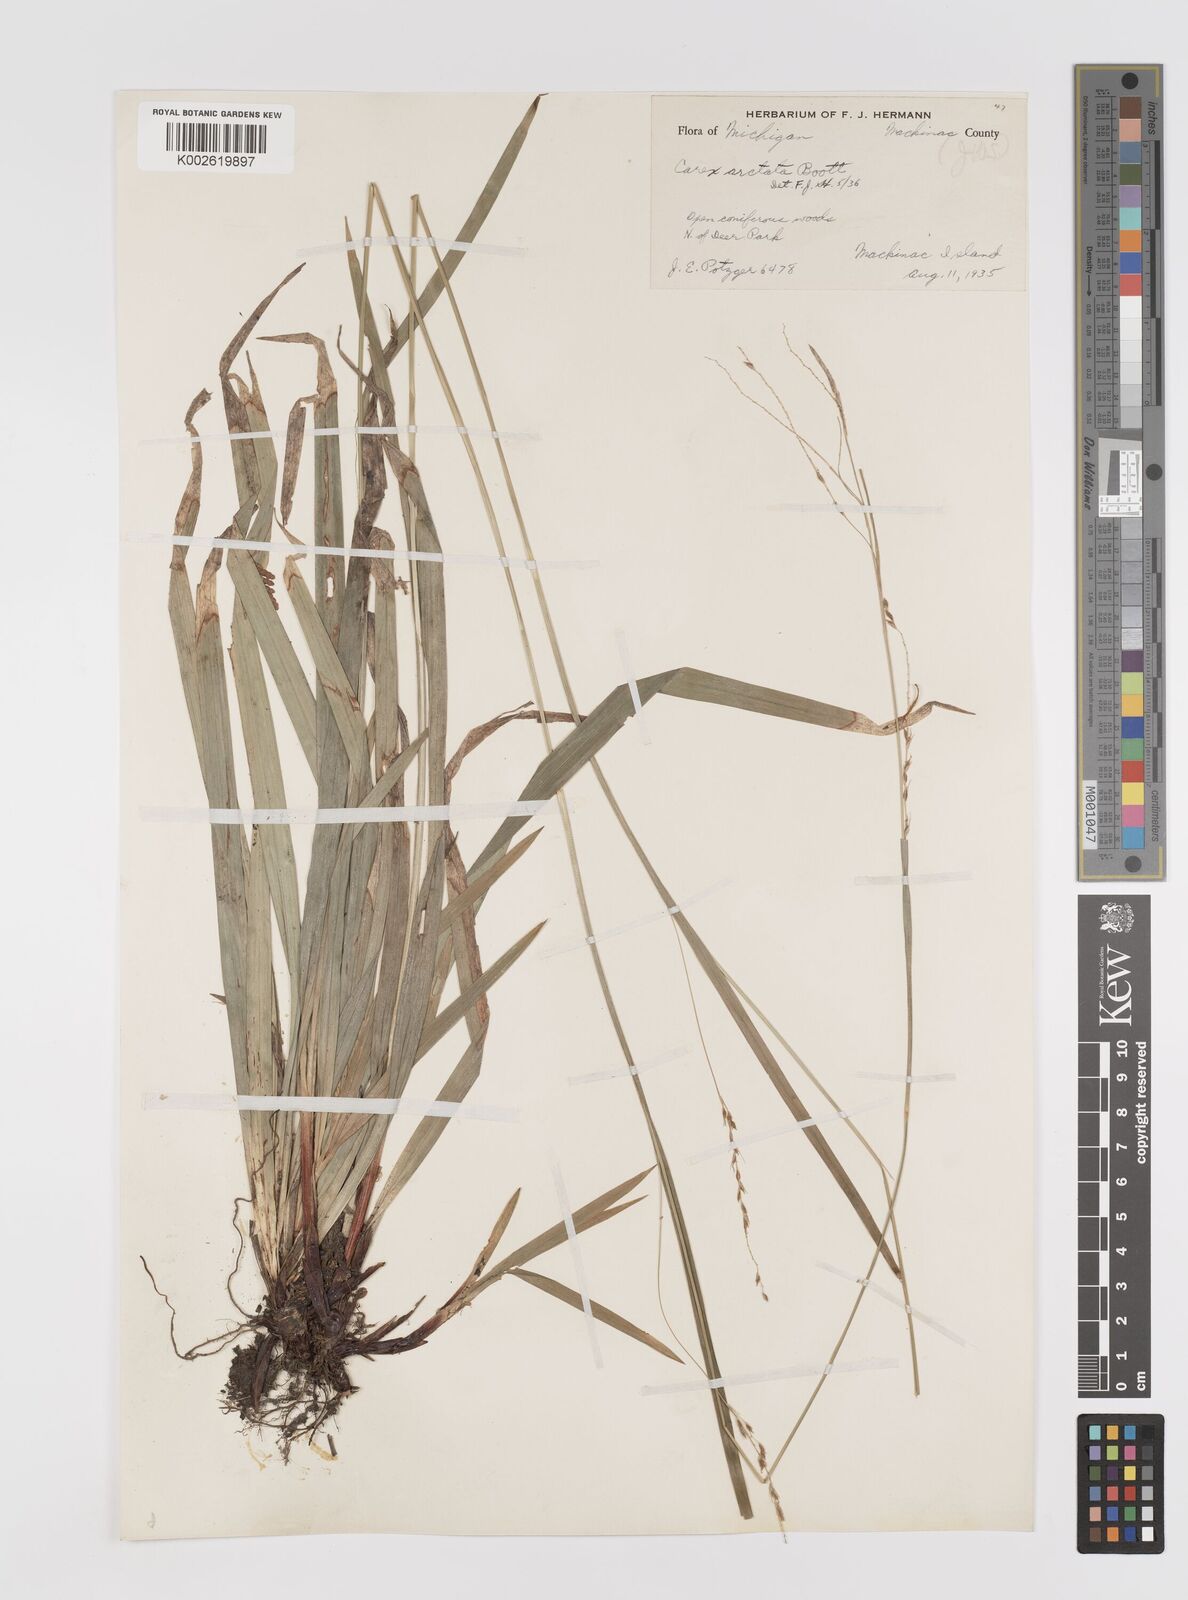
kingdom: Plantae
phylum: Tracheophyta
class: Liliopsida
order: Poales
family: Cyperaceae
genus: Carex
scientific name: Carex arctata
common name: Black sedge
